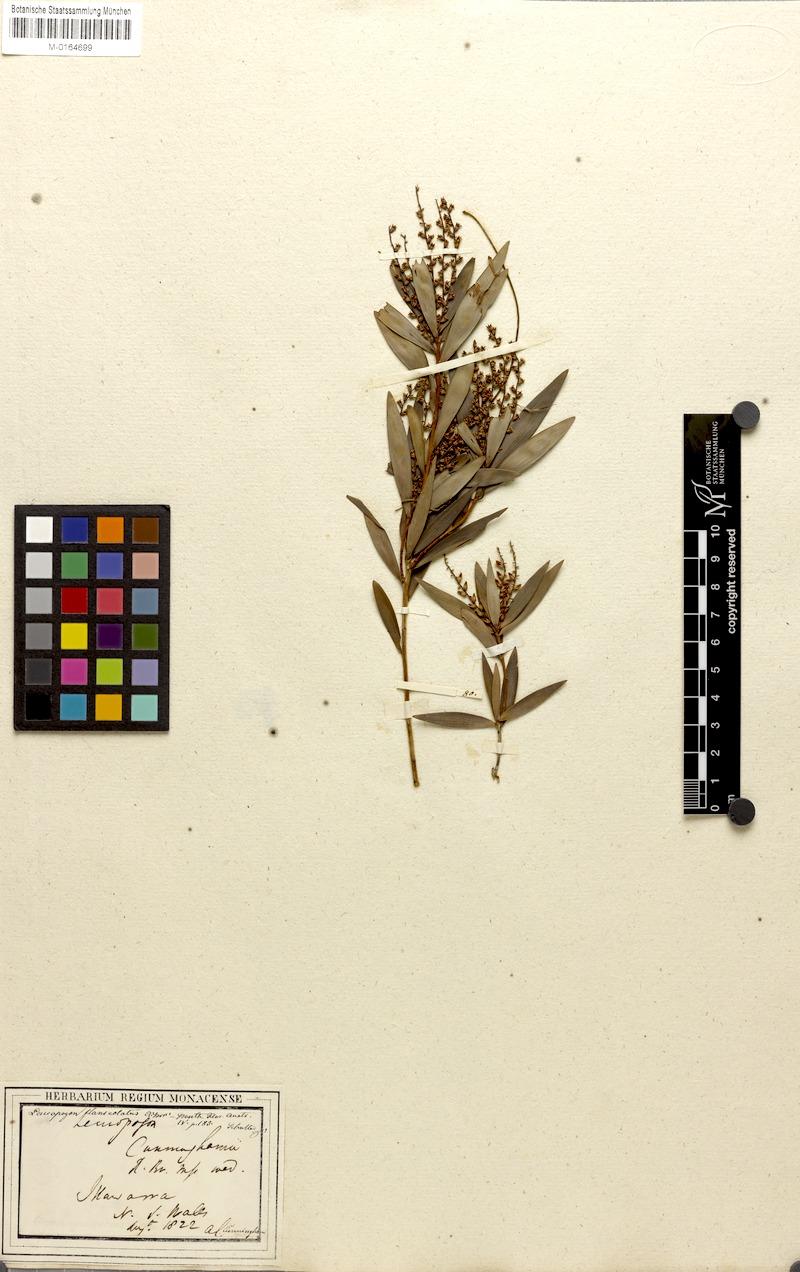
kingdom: Plantae
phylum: Tracheophyta
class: Magnoliopsida
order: Ericales
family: Ericaceae
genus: Leucopogon
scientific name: Leucopogon lanceolatus
